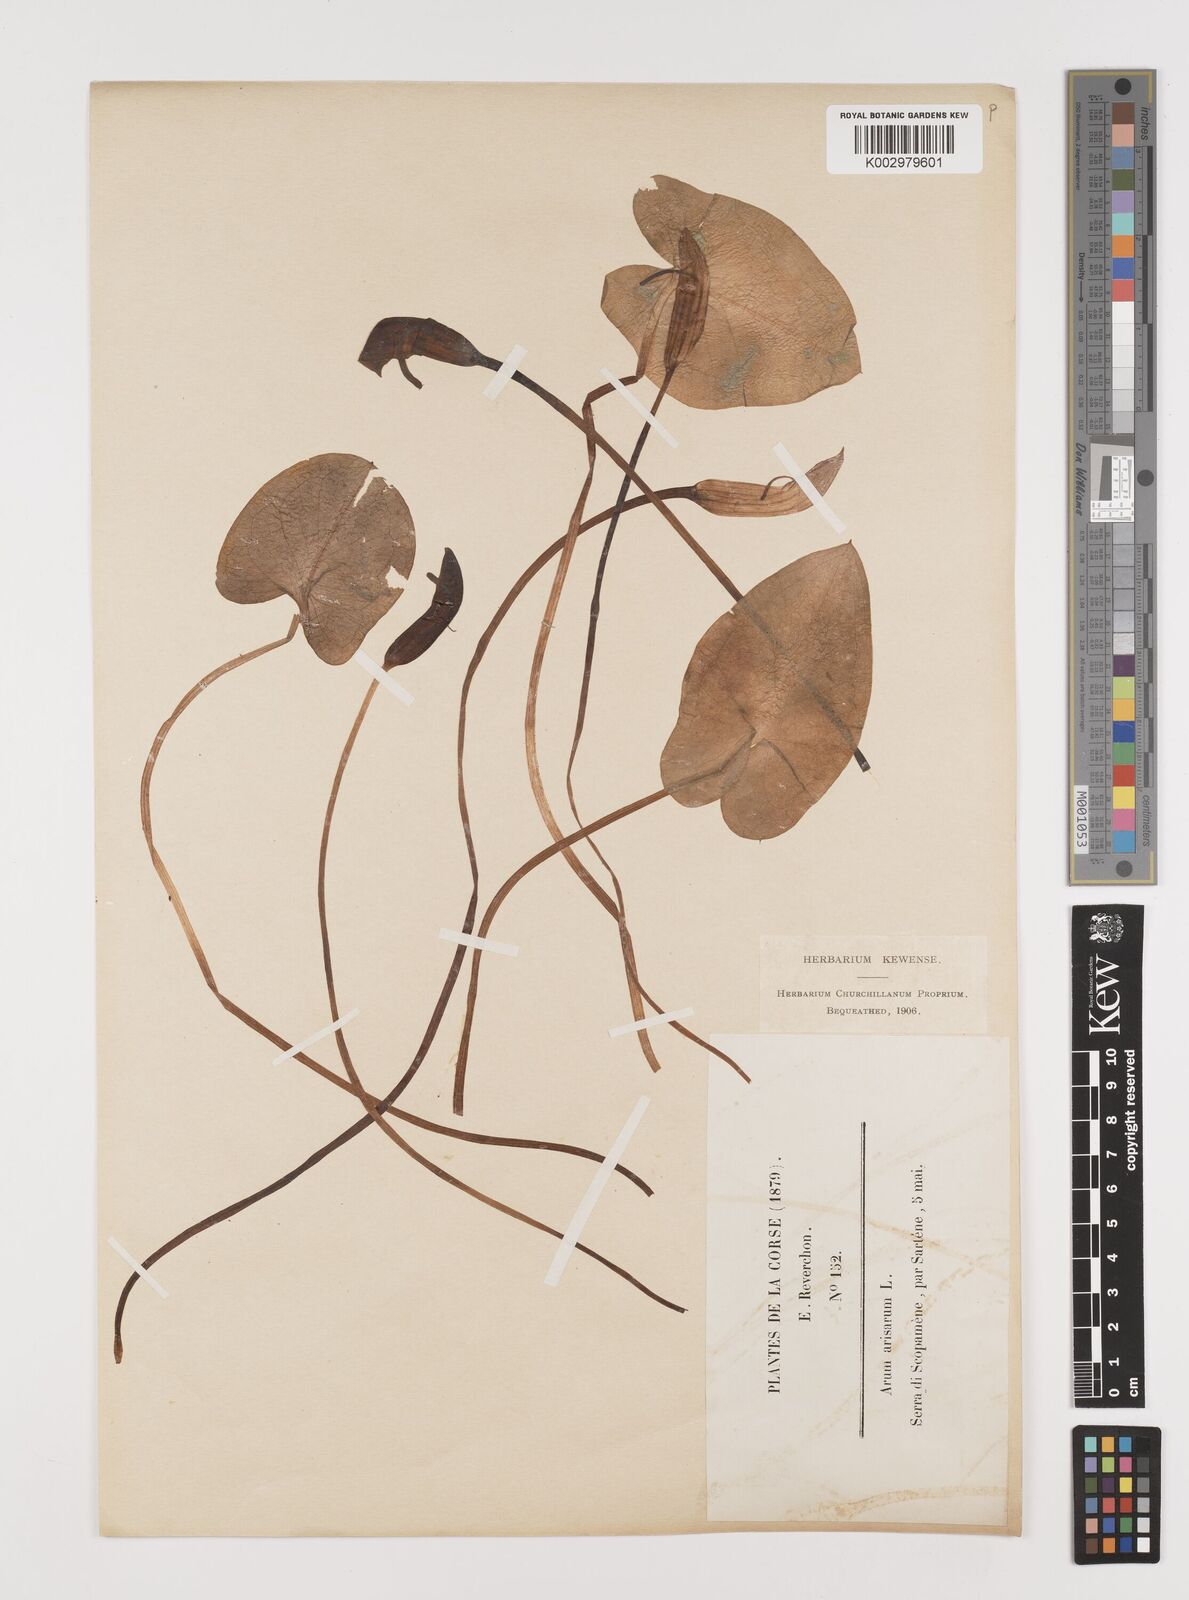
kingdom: Plantae
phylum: Tracheophyta
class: Liliopsida
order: Alismatales
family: Araceae
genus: Arisarum
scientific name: Arisarum vulgare
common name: Common arisarum
